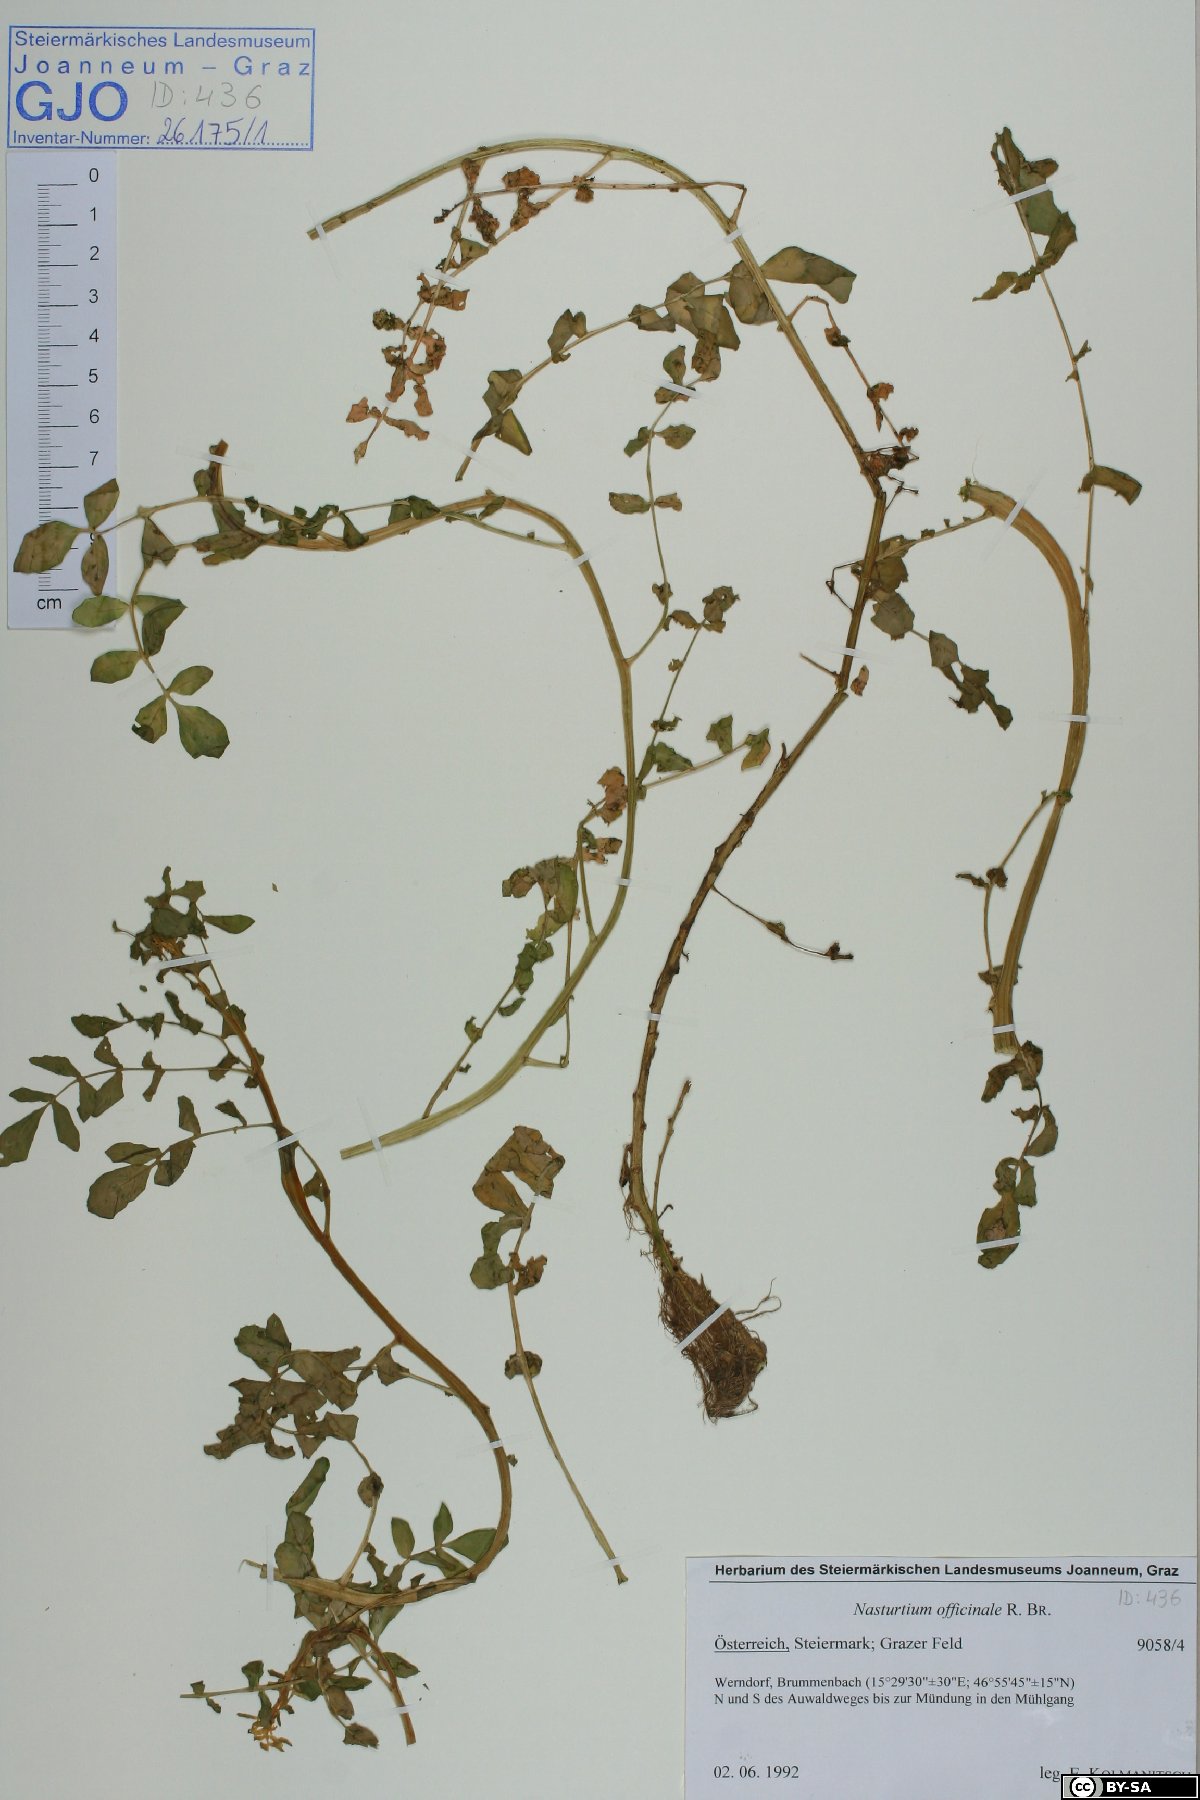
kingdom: Plantae
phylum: Tracheophyta
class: Magnoliopsida
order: Brassicales
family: Brassicaceae
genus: Nasturtium
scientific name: Nasturtium officinale
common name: Watercress
